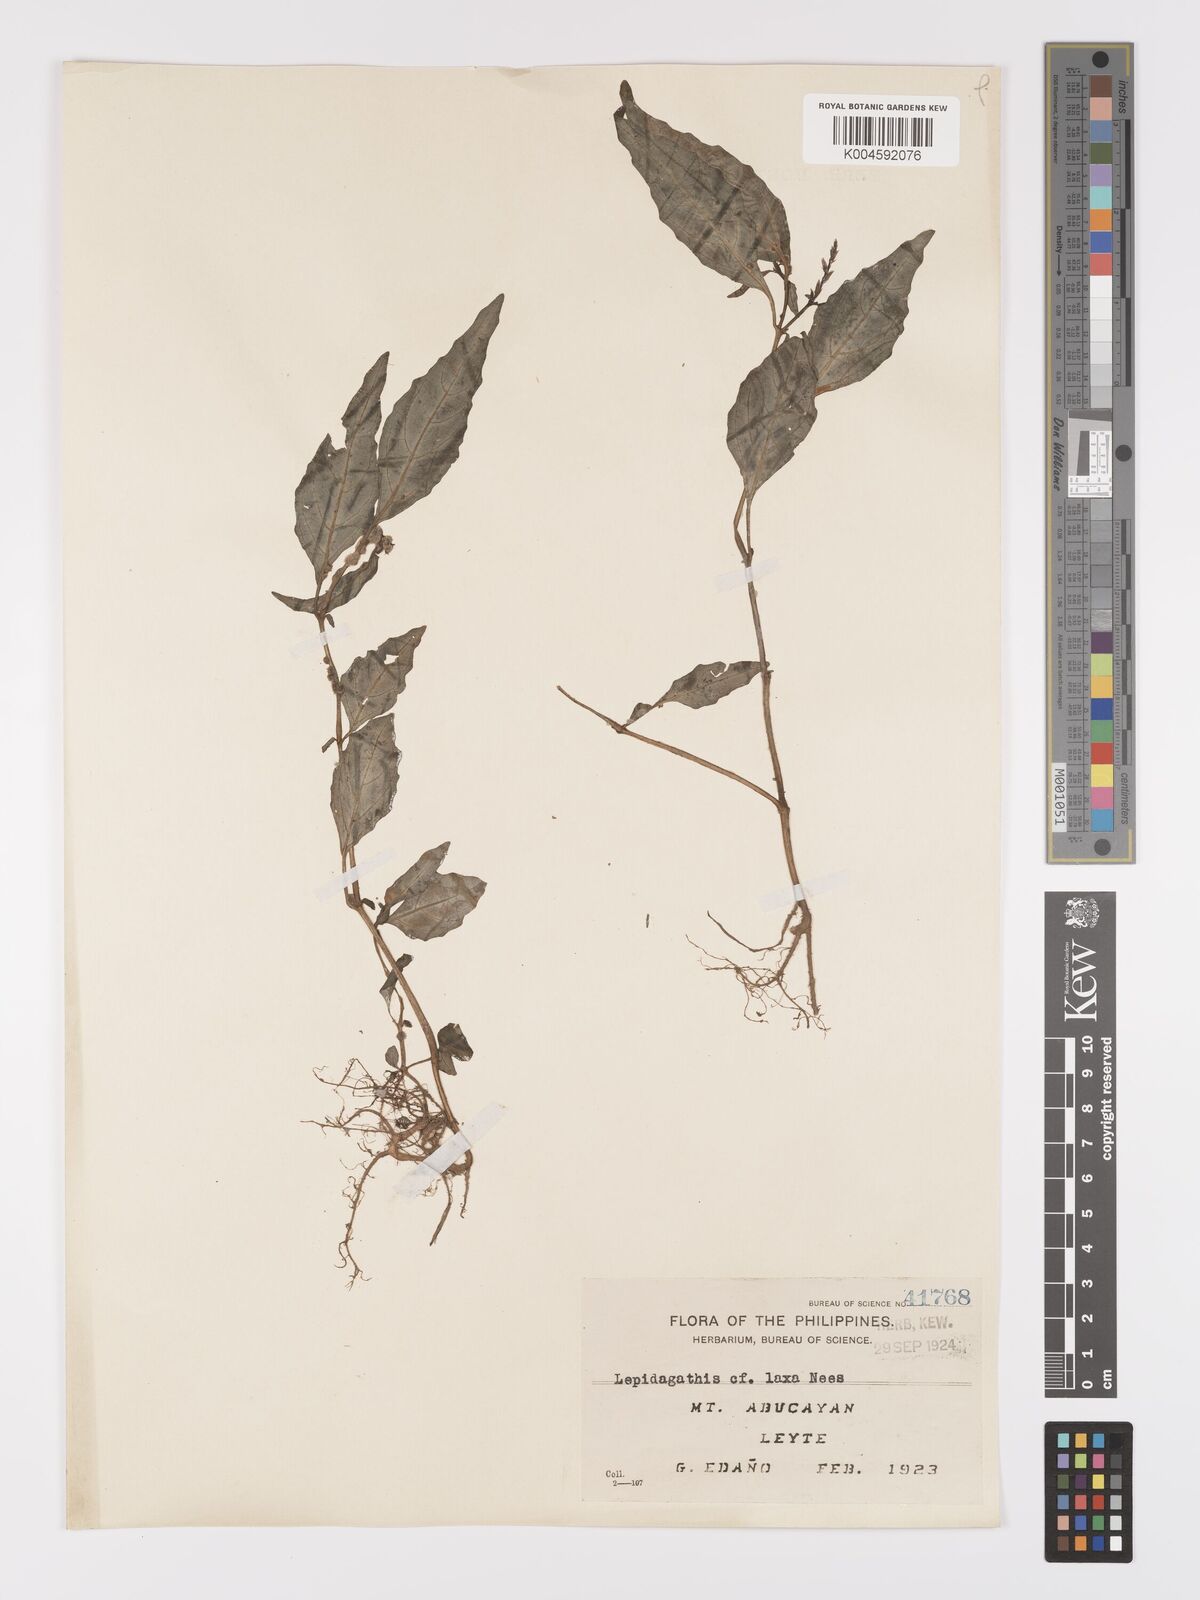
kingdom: Plantae
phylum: Tracheophyta
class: Magnoliopsida
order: Lamiales
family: Acanthaceae
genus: Lepidagathis
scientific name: Lepidagathis laxa
